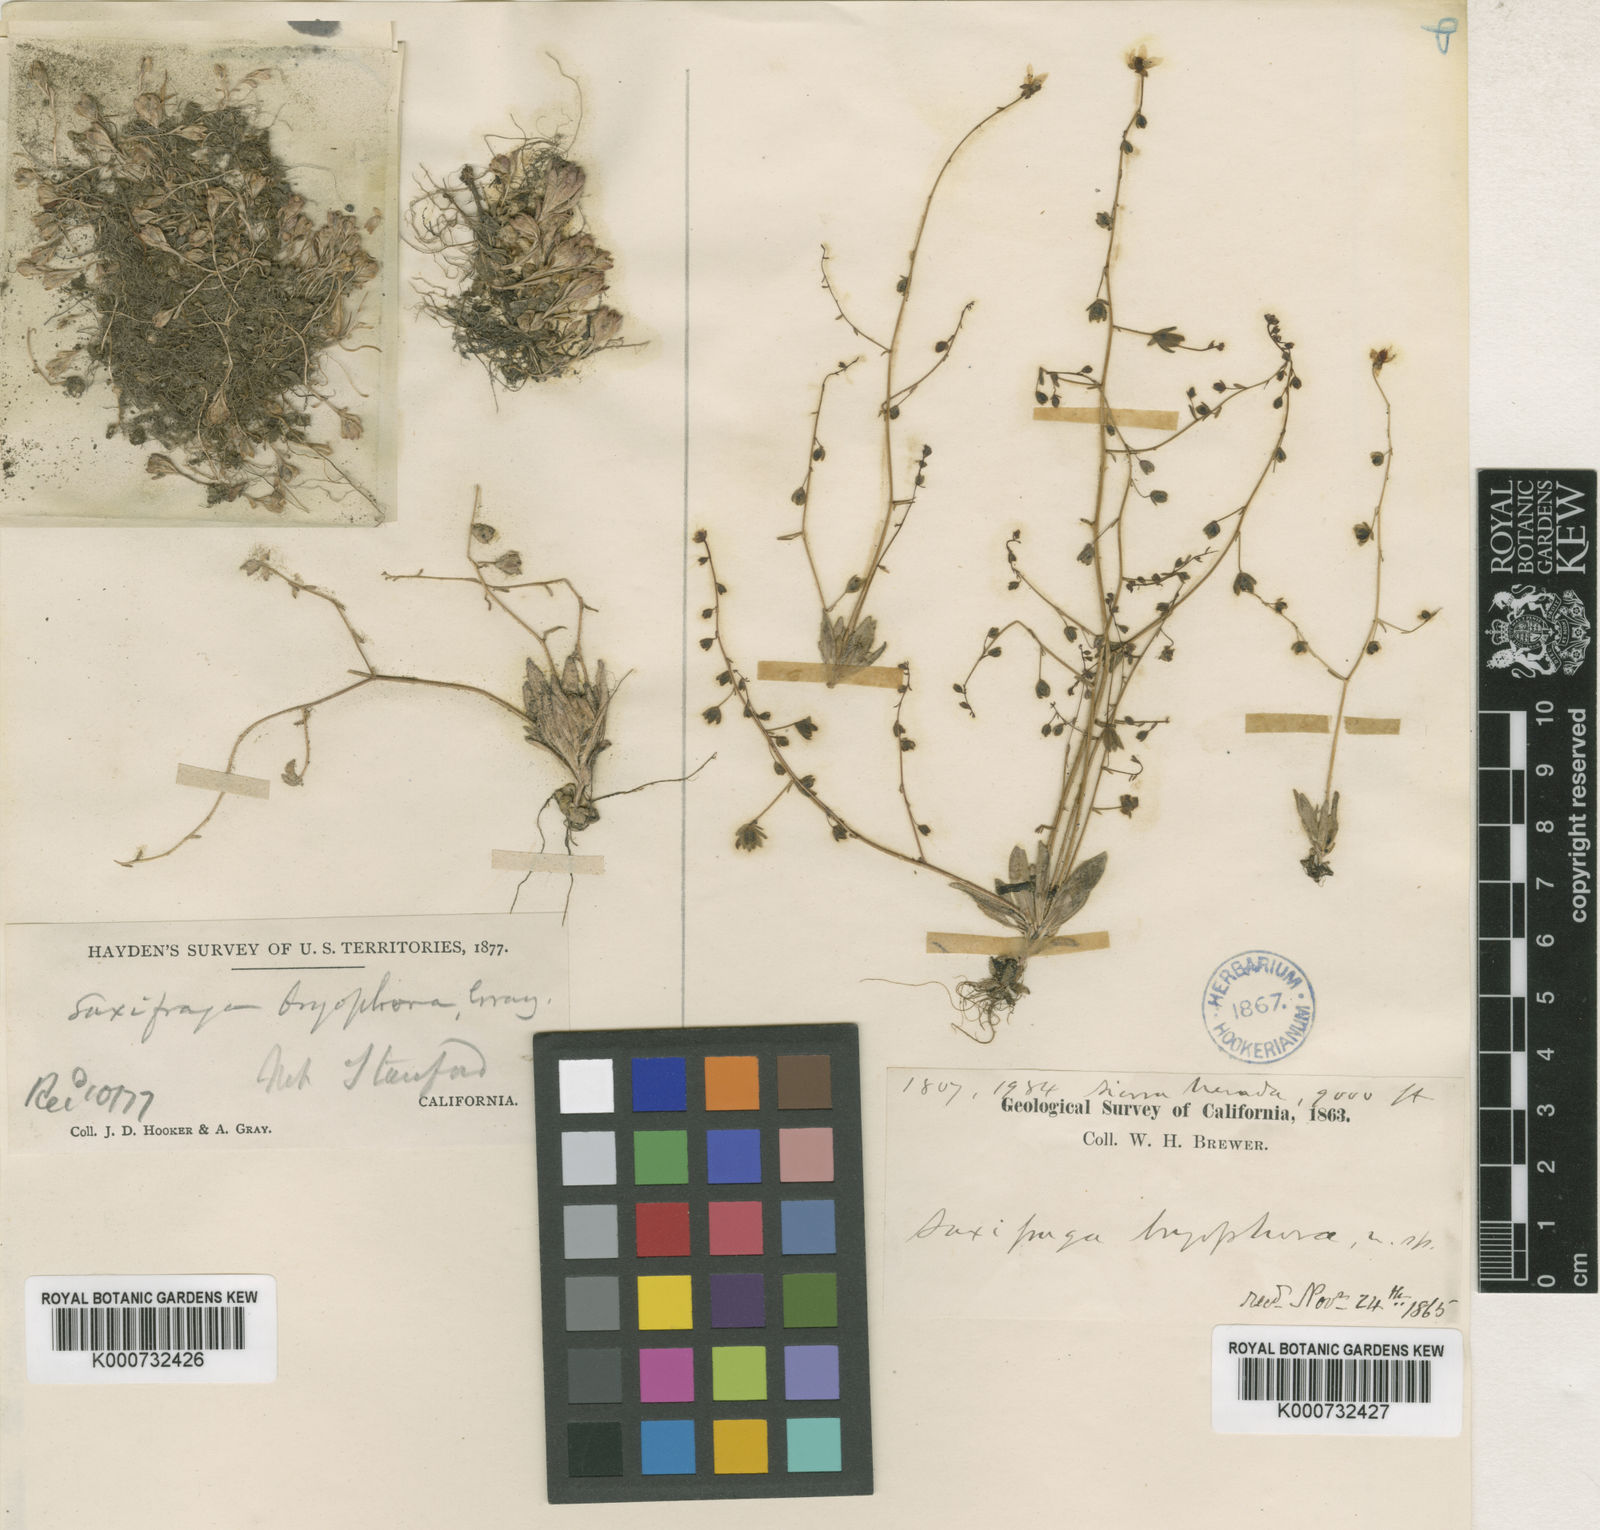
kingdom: Plantae
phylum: Tracheophyta
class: Magnoliopsida
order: Saxifragales
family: Saxifragaceae
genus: Micranthes
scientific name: Micranthes bryophora
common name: Bud saxifrage
